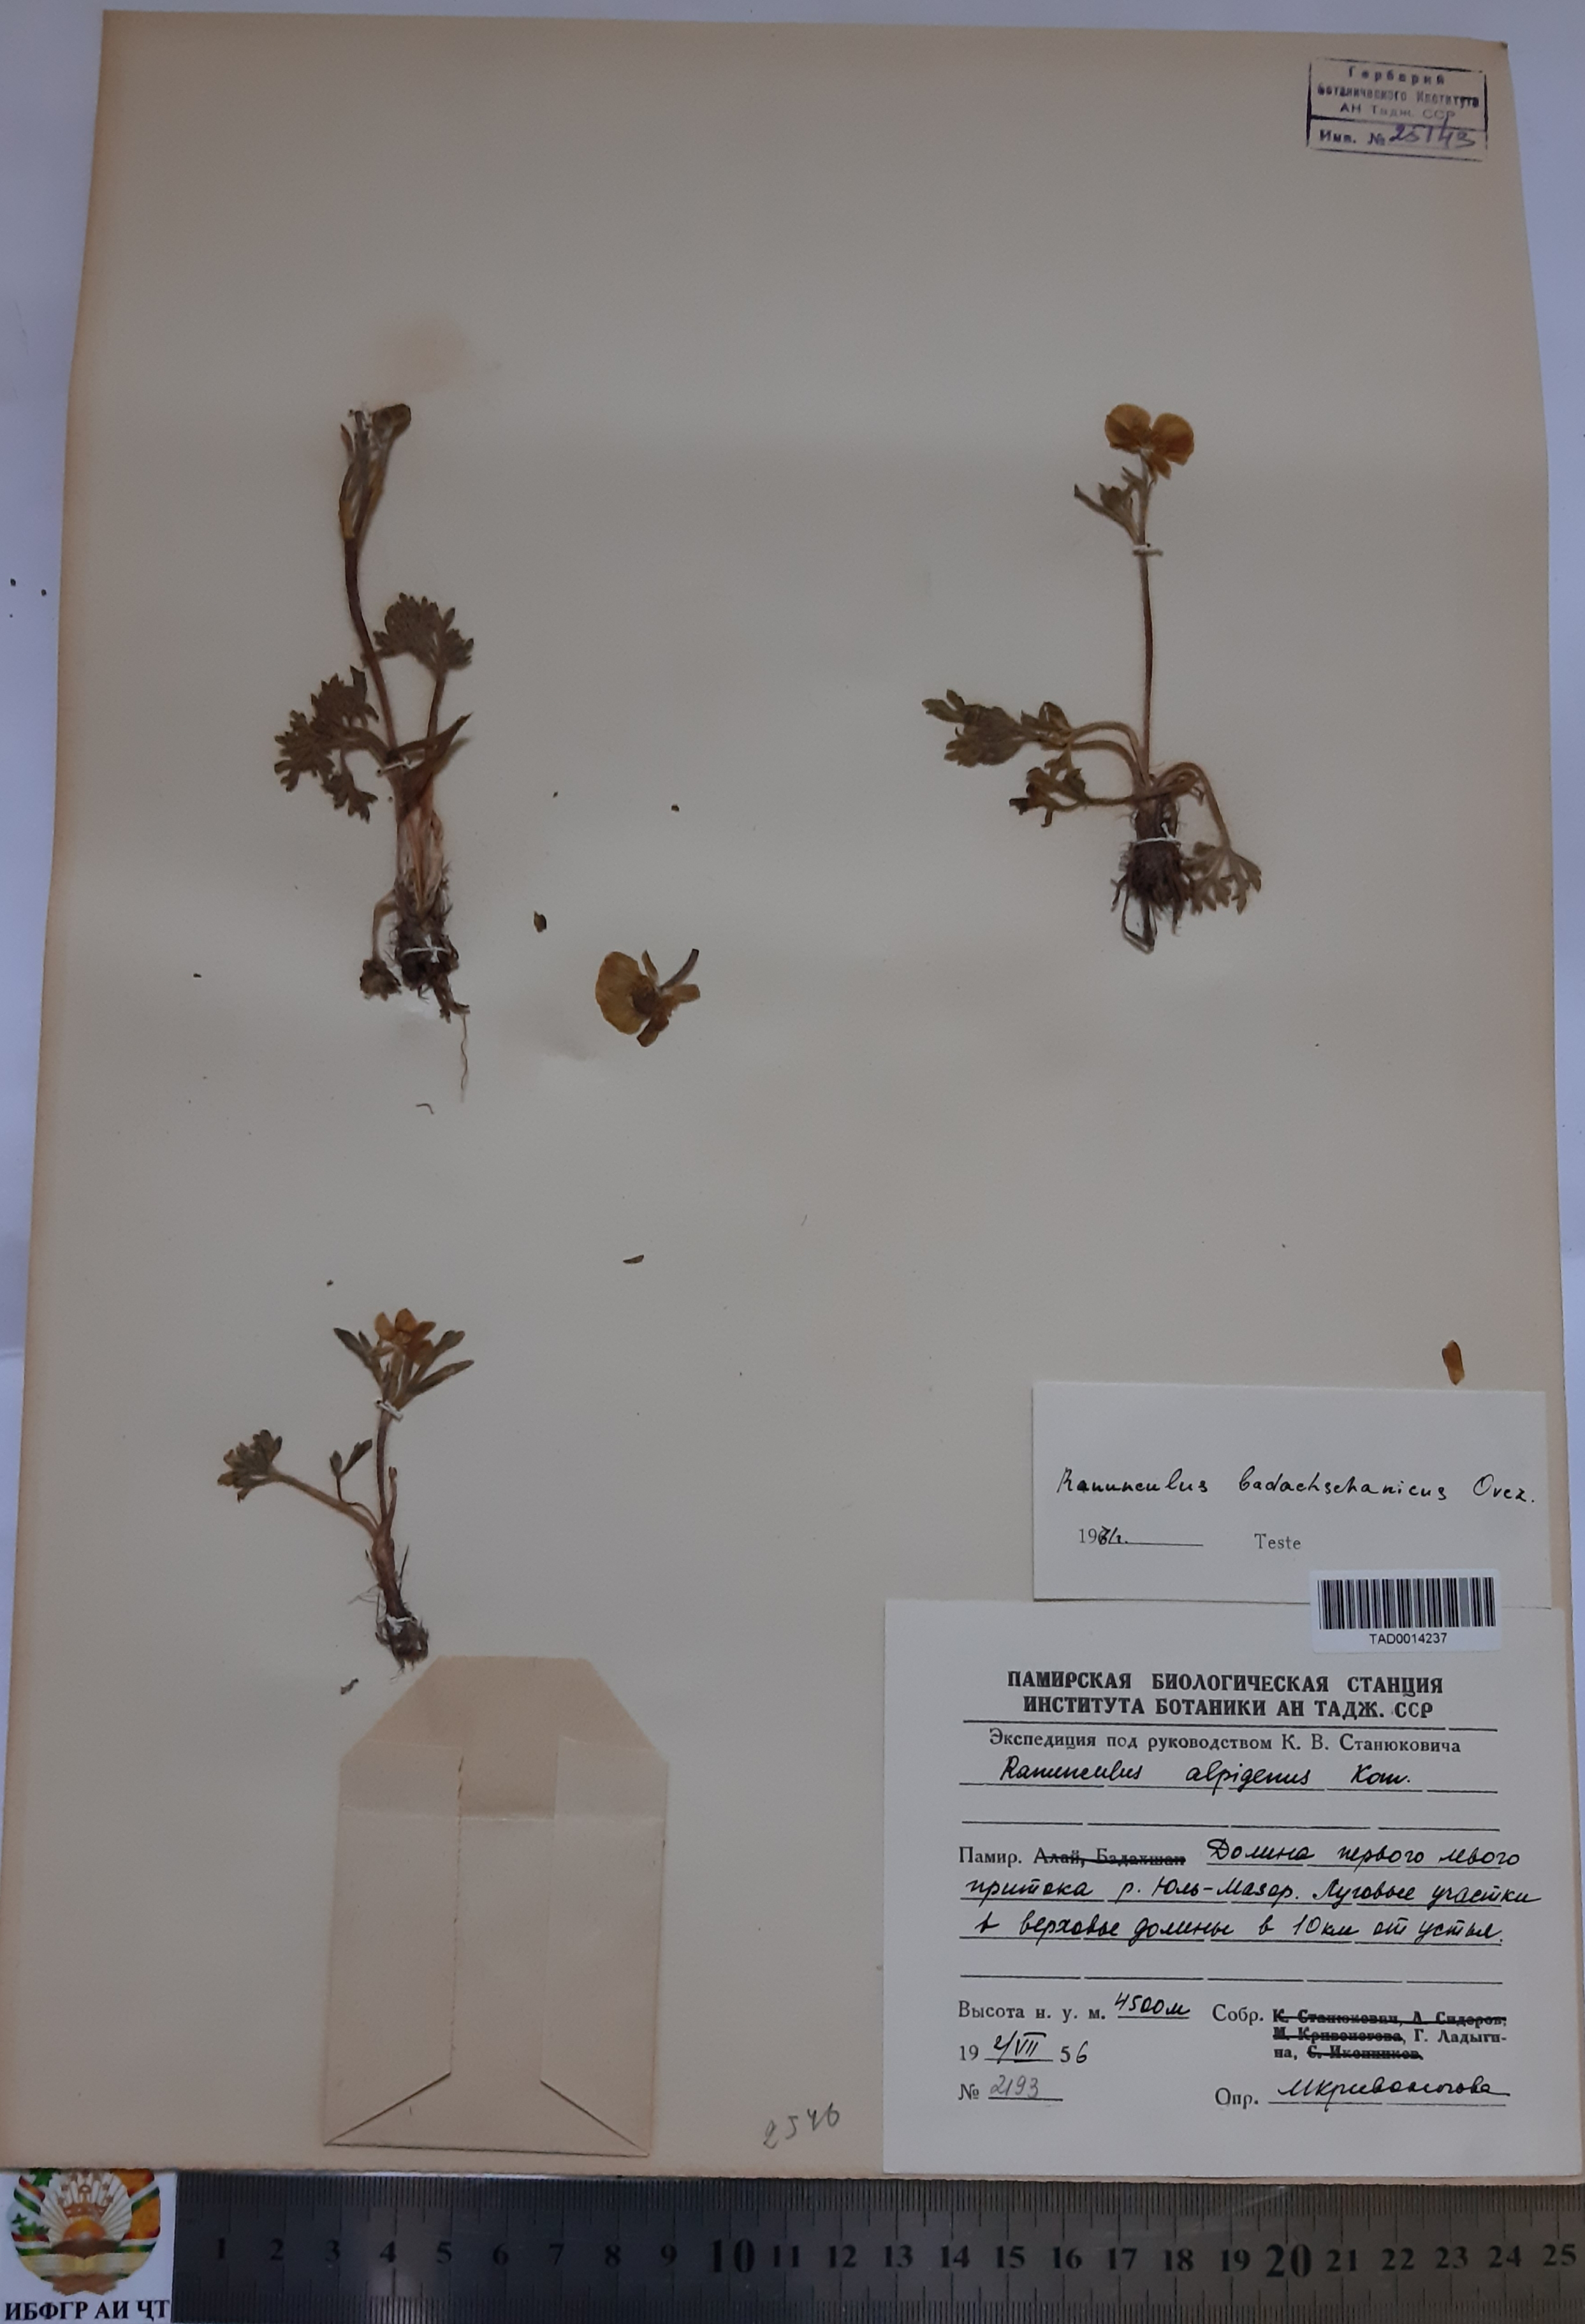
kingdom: Plantae
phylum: Tracheophyta
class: Magnoliopsida
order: Ranunculales
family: Ranunculaceae
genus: Ranunculus
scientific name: Ranunculus alpigenus
